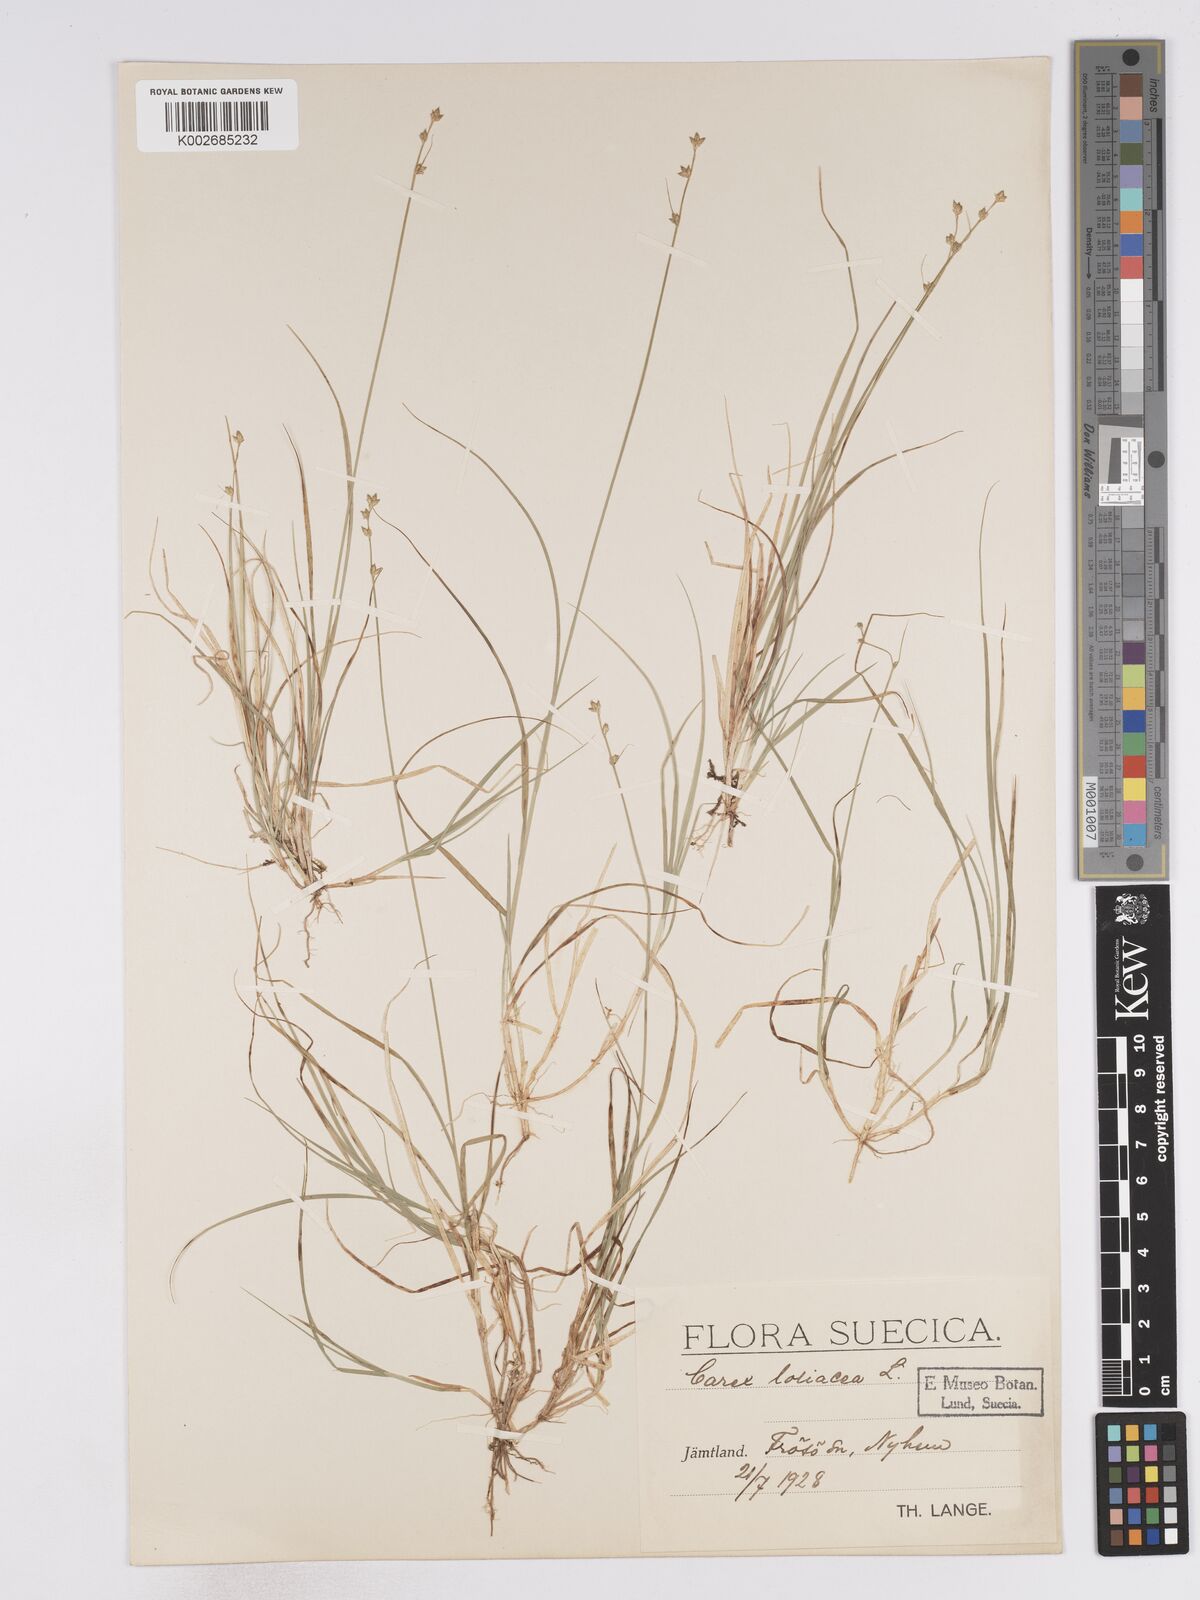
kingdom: Plantae
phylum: Tracheophyta
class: Liliopsida
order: Poales
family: Cyperaceae
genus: Carex
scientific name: Carex loliacea
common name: Ryegrass sedge
